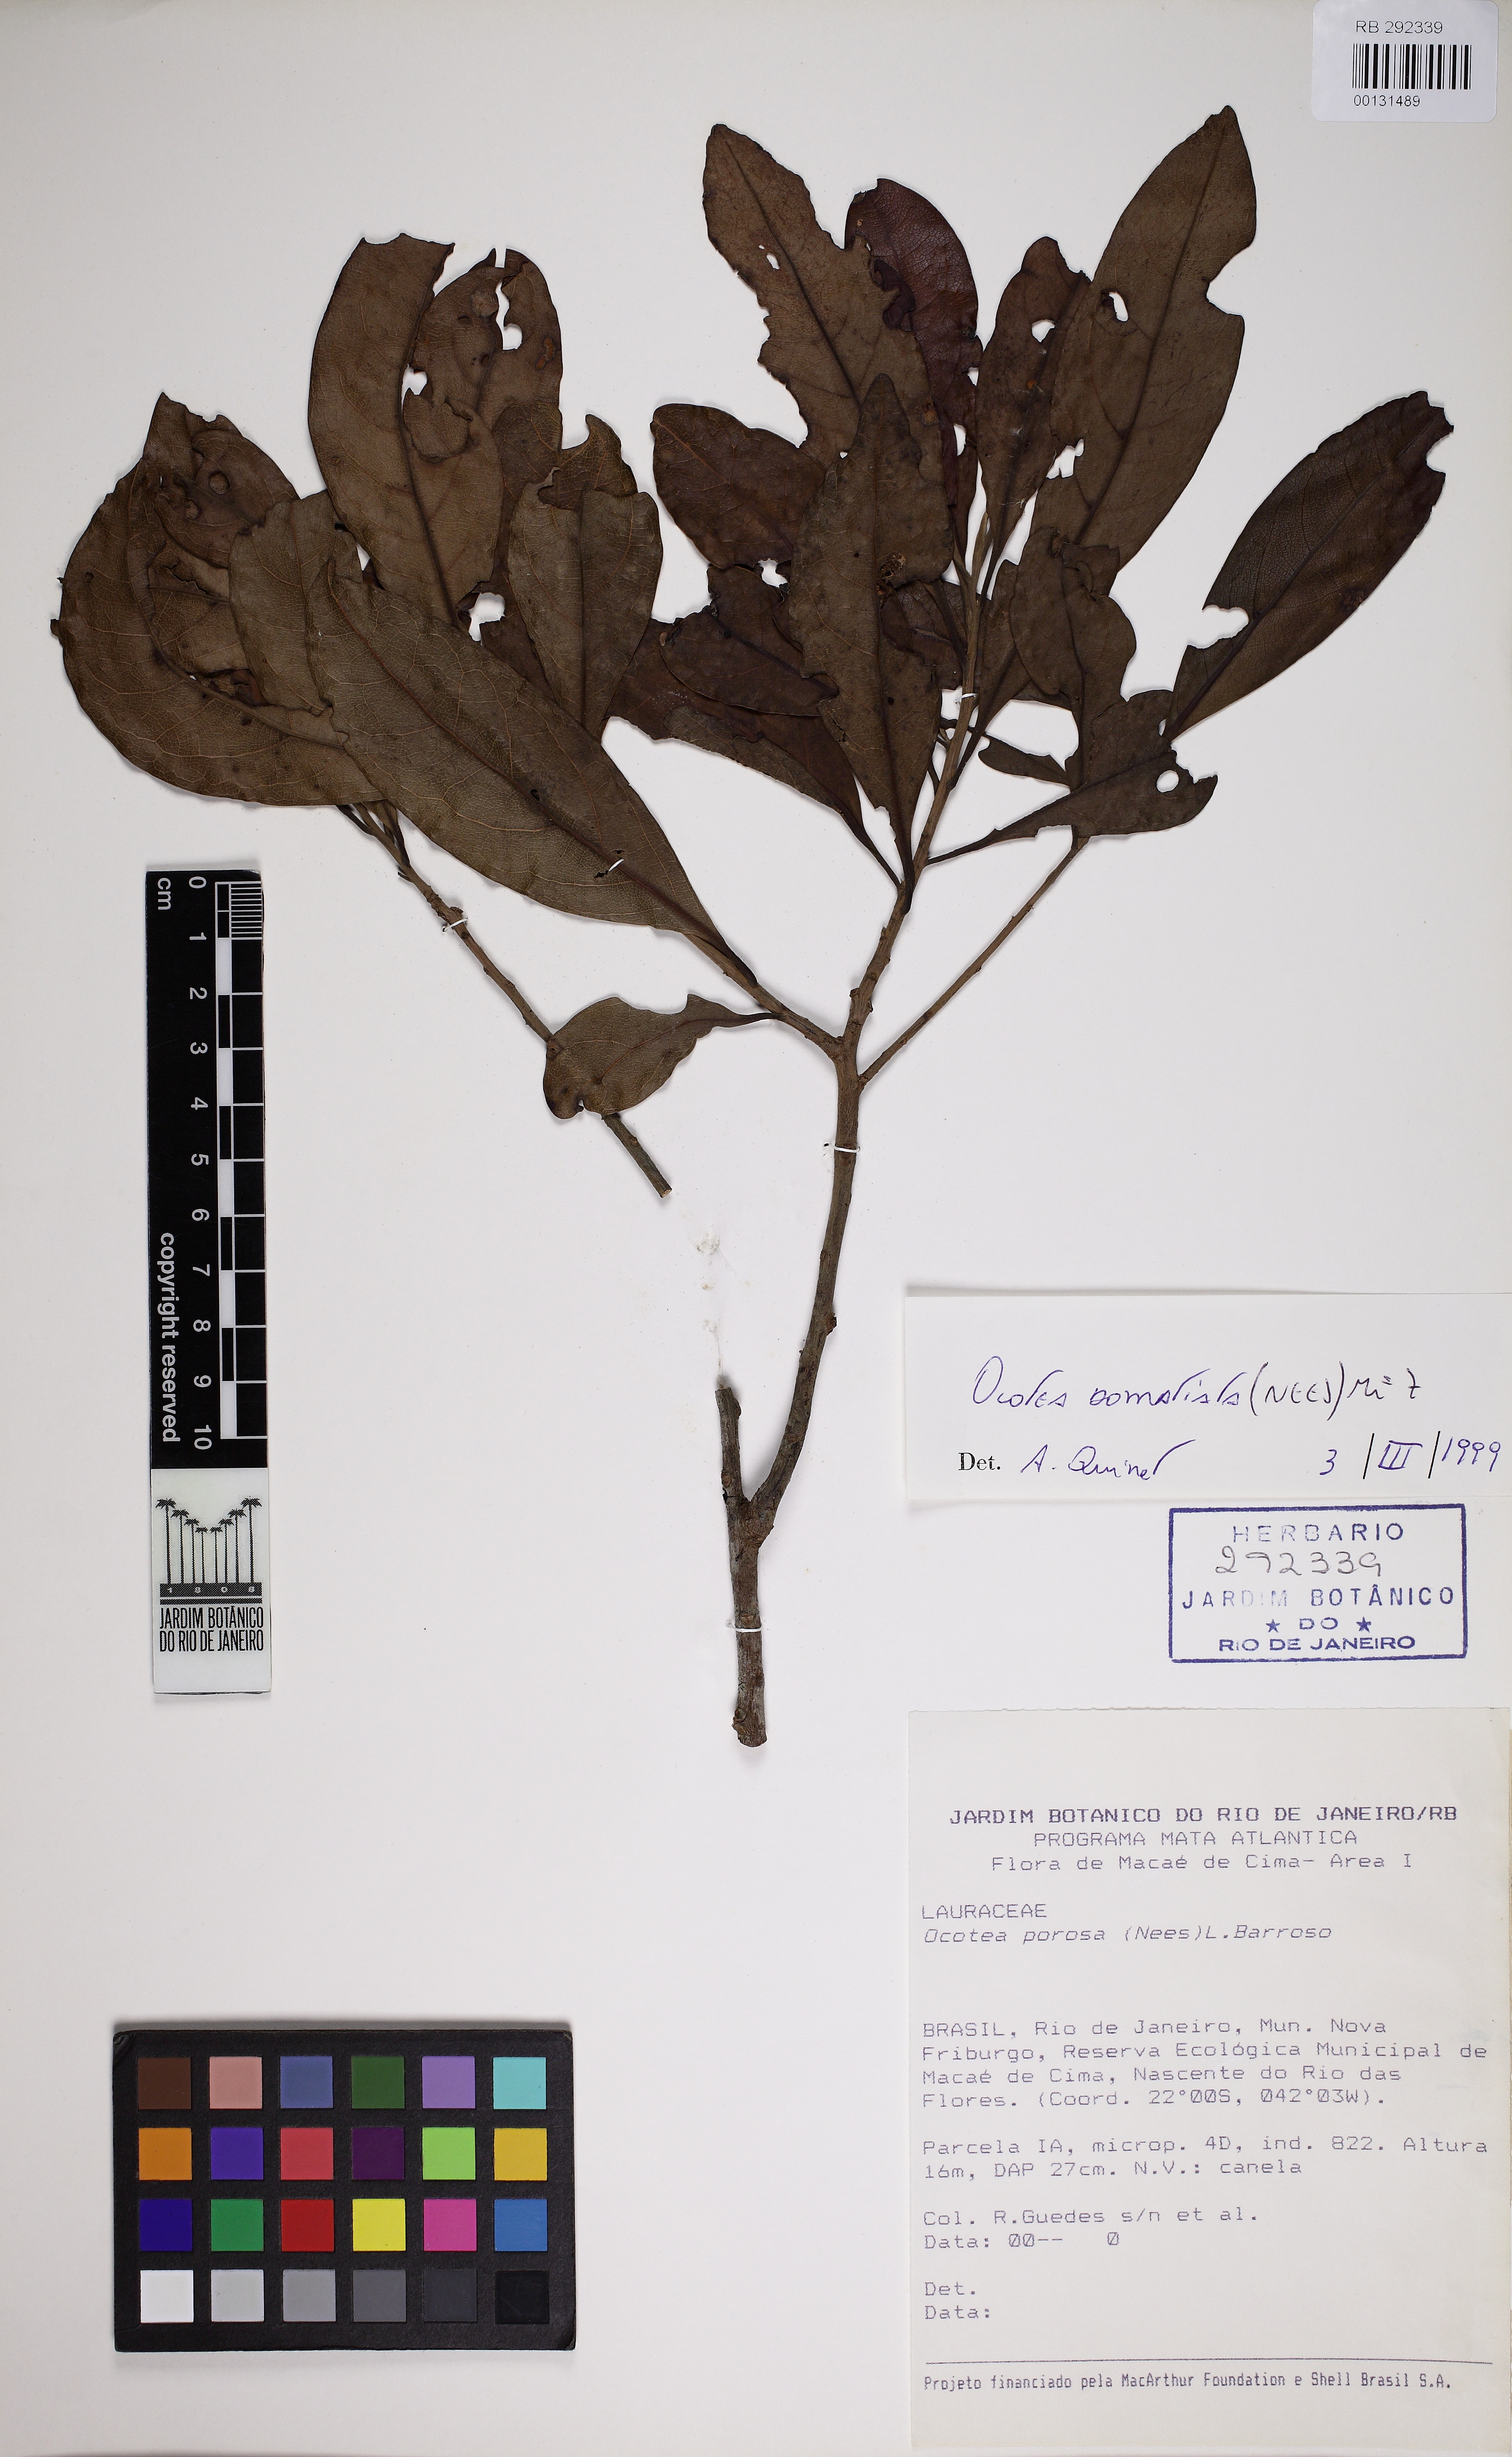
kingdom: Plantae
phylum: Tracheophyta
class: Magnoliopsida
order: Laurales
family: Lauraceae
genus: Ocotea
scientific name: Ocotea domatiata
